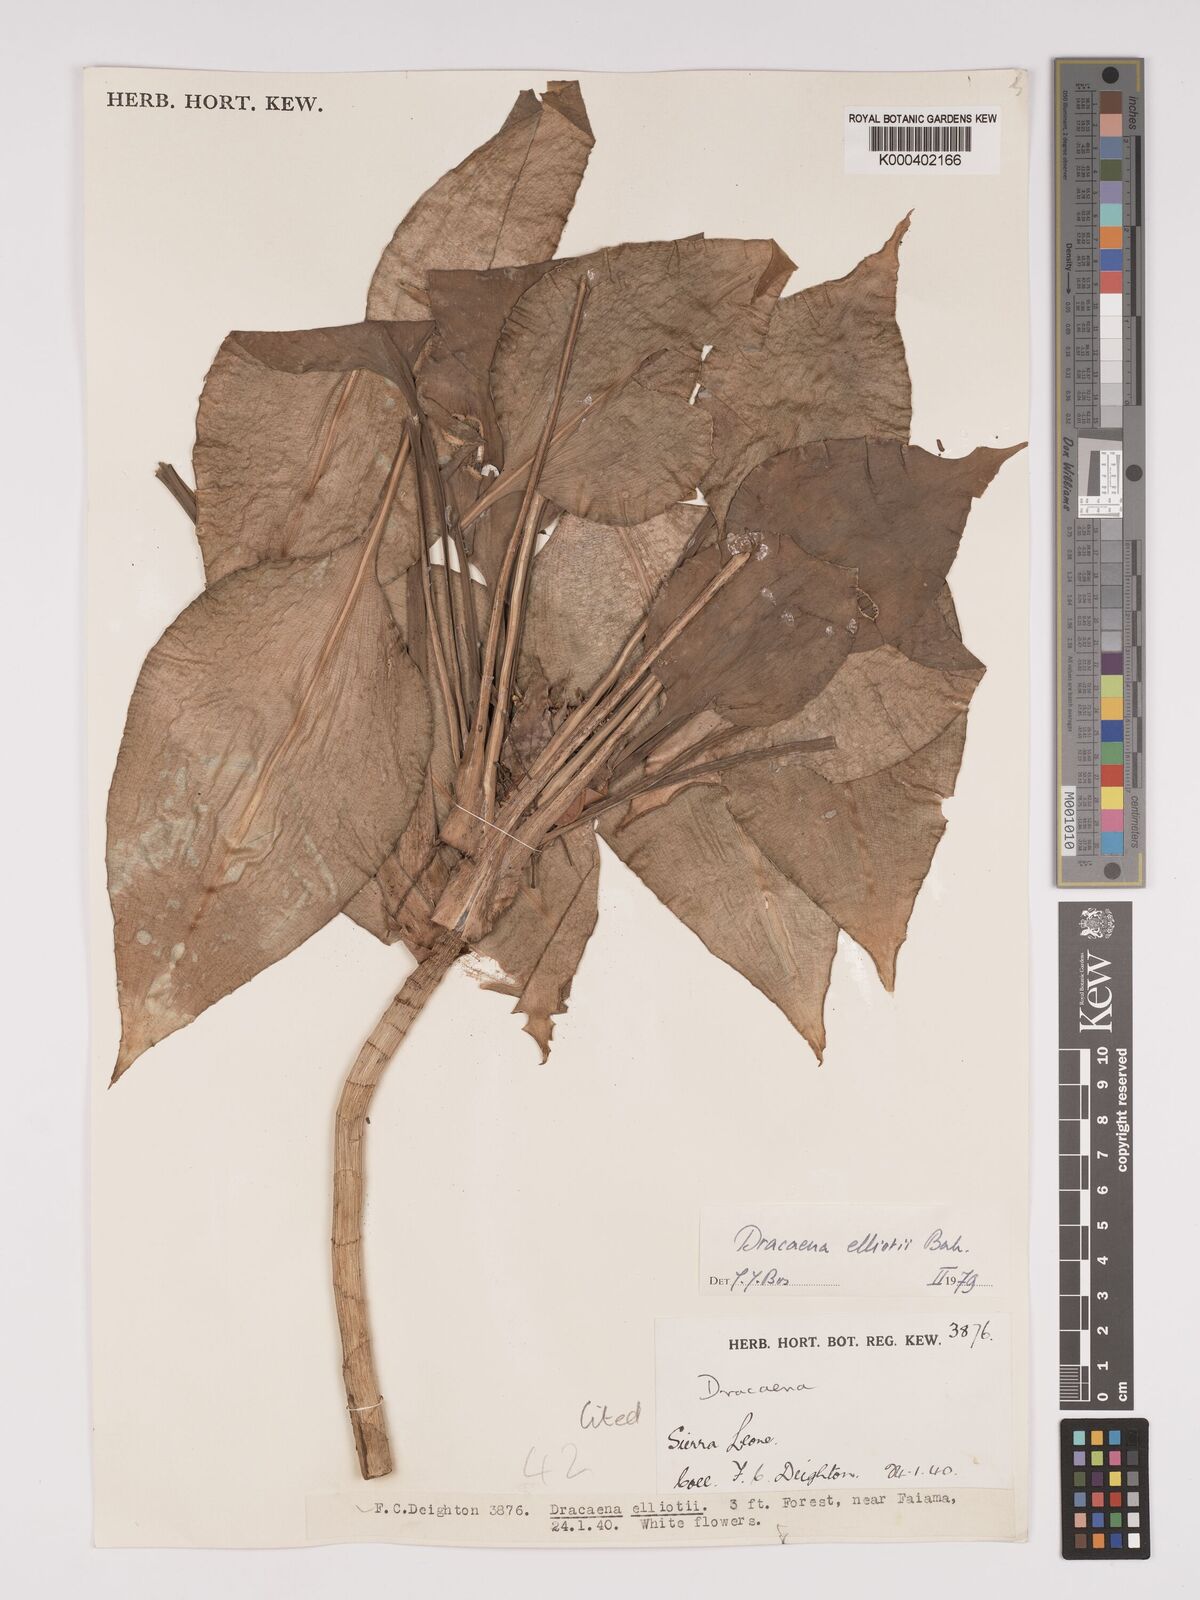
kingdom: Plantae
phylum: Tracheophyta
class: Liliopsida
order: Asparagales
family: Asparagaceae
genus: Dracaena
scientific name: Dracaena cristula
